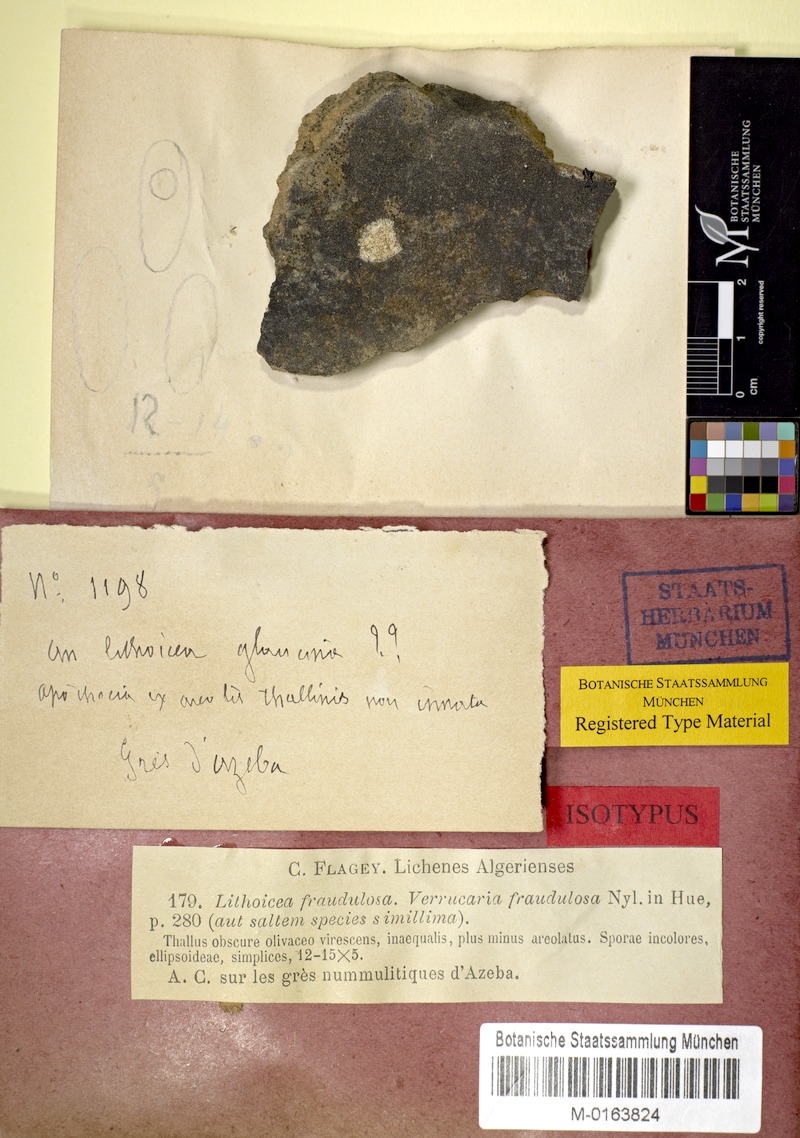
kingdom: Fungi
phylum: Ascomycota
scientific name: Ascomycota
